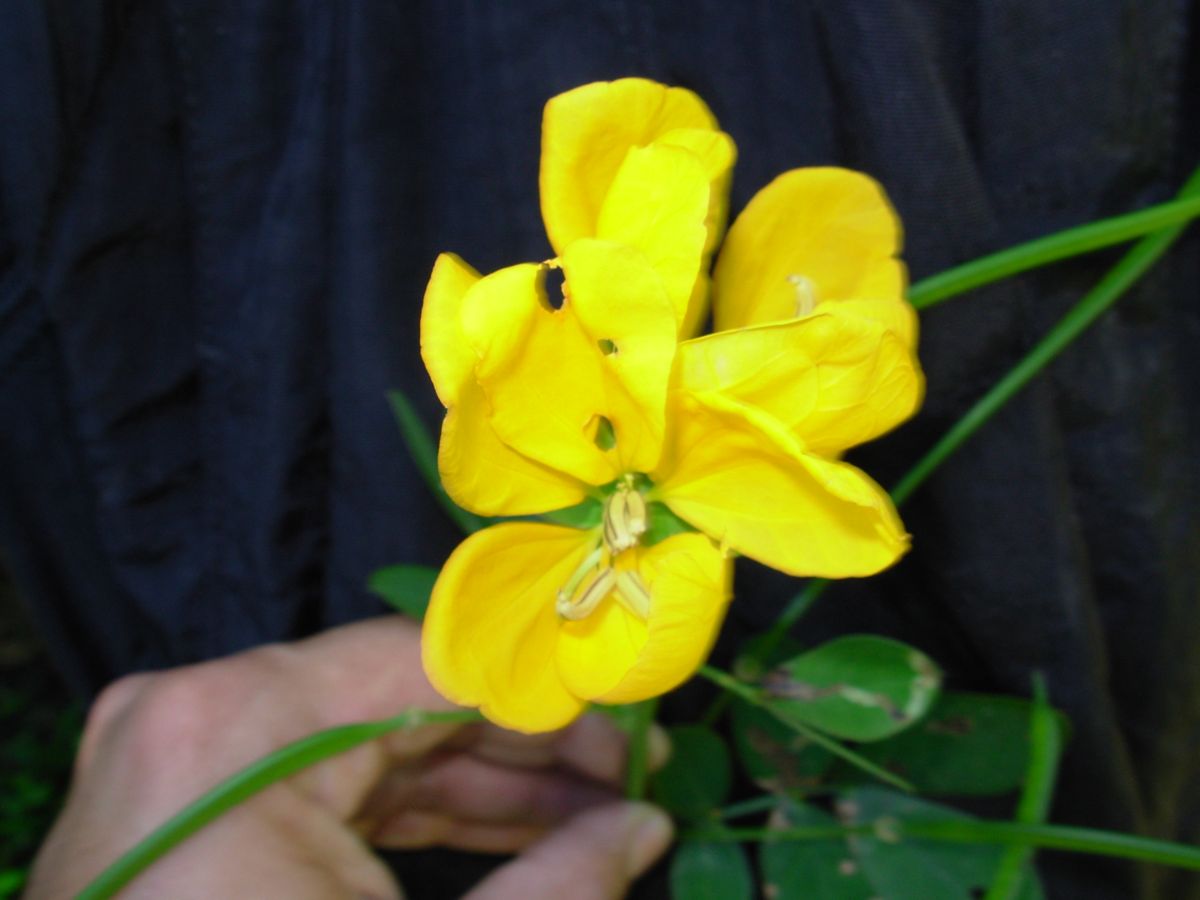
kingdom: Plantae
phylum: Tracheophyta
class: Magnoliopsida
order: Fabales
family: Fabaceae
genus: Senna
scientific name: Senna cobanensis
